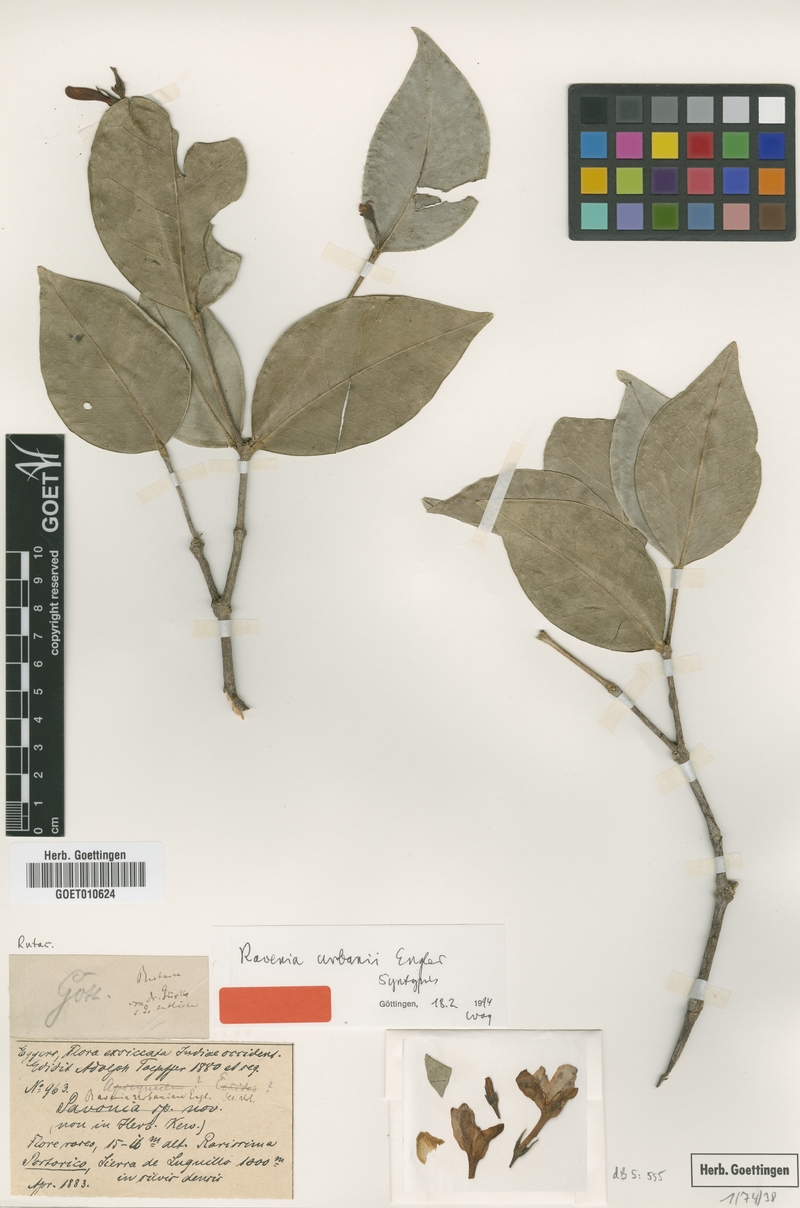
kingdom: Plantae
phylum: Tracheophyta
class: Magnoliopsida
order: Sapindales
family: Rutaceae
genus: Ravenia
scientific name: Ravenia urbanii
